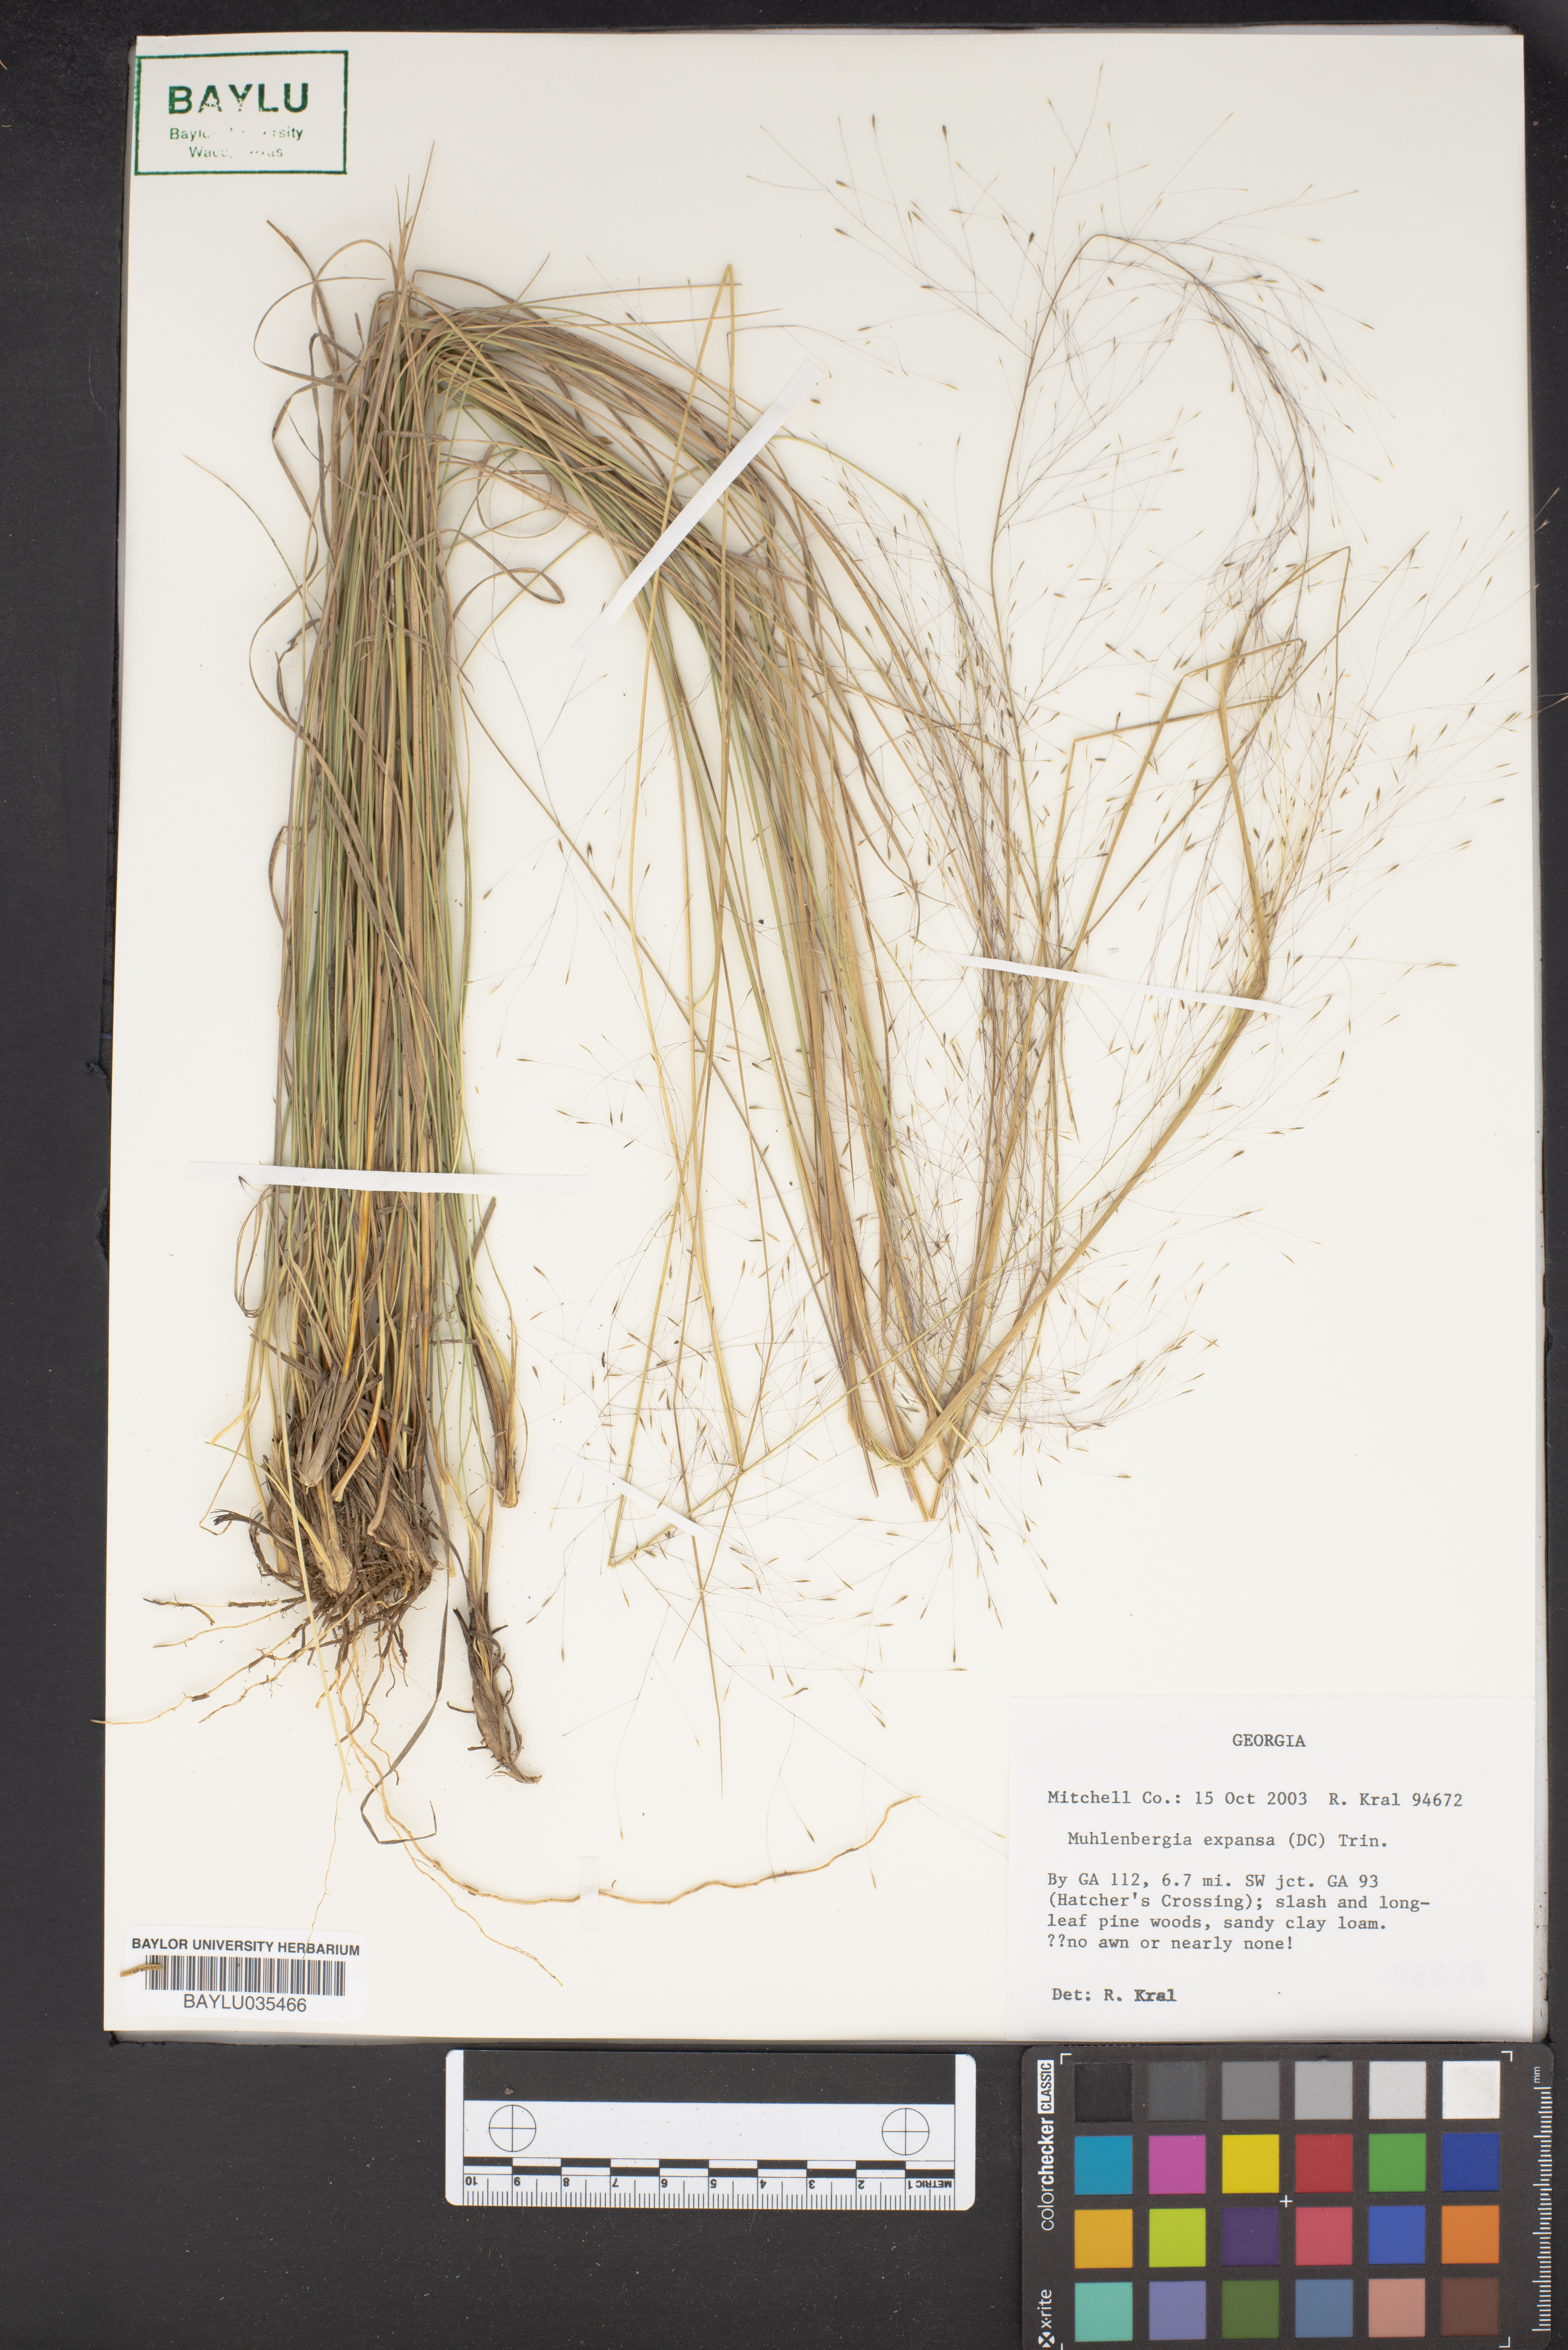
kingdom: Plantae
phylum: Tracheophyta
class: Liliopsida
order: Poales
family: Poaceae
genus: Muhlenbergia
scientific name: Muhlenbergia expansa
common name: Savannah hairgrass
